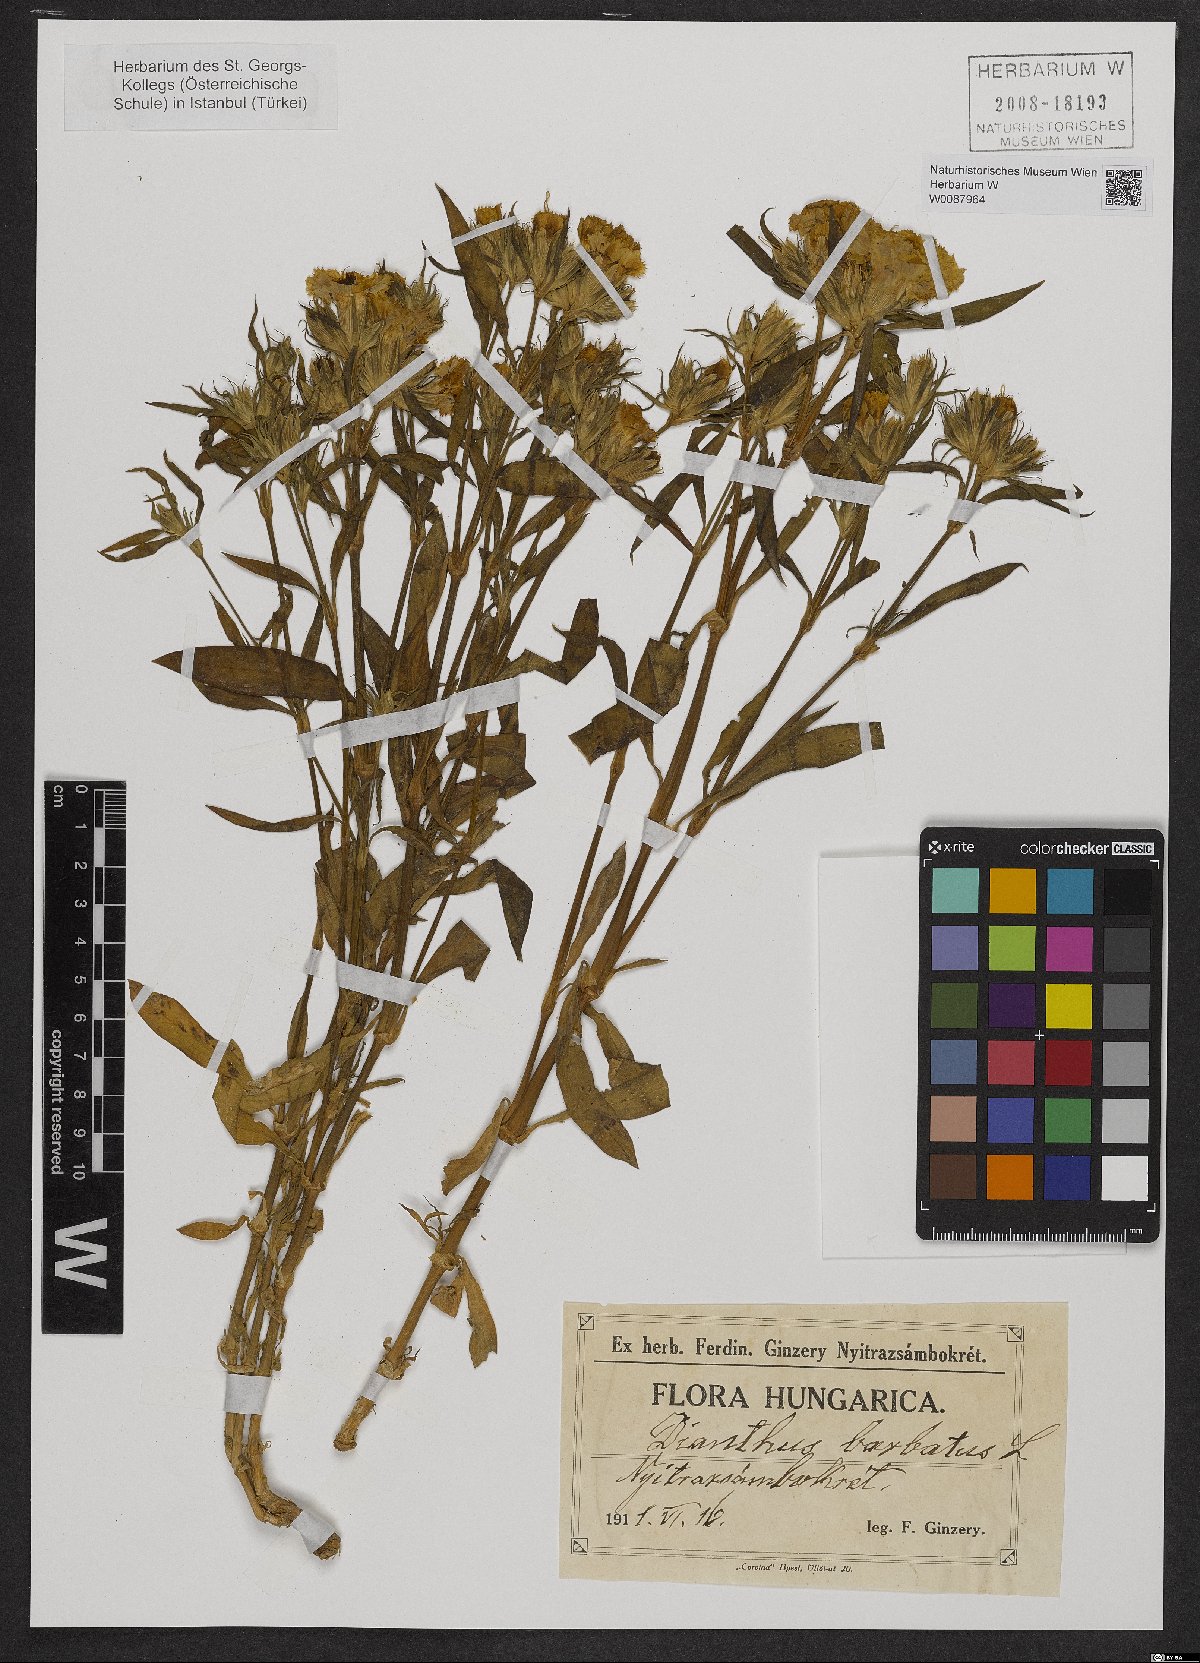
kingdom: Plantae
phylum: Tracheophyta
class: Magnoliopsida
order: Caryophyllales
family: Caryophyllaceae
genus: Dianthus
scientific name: Dianthus barbatus
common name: Sweet-william
